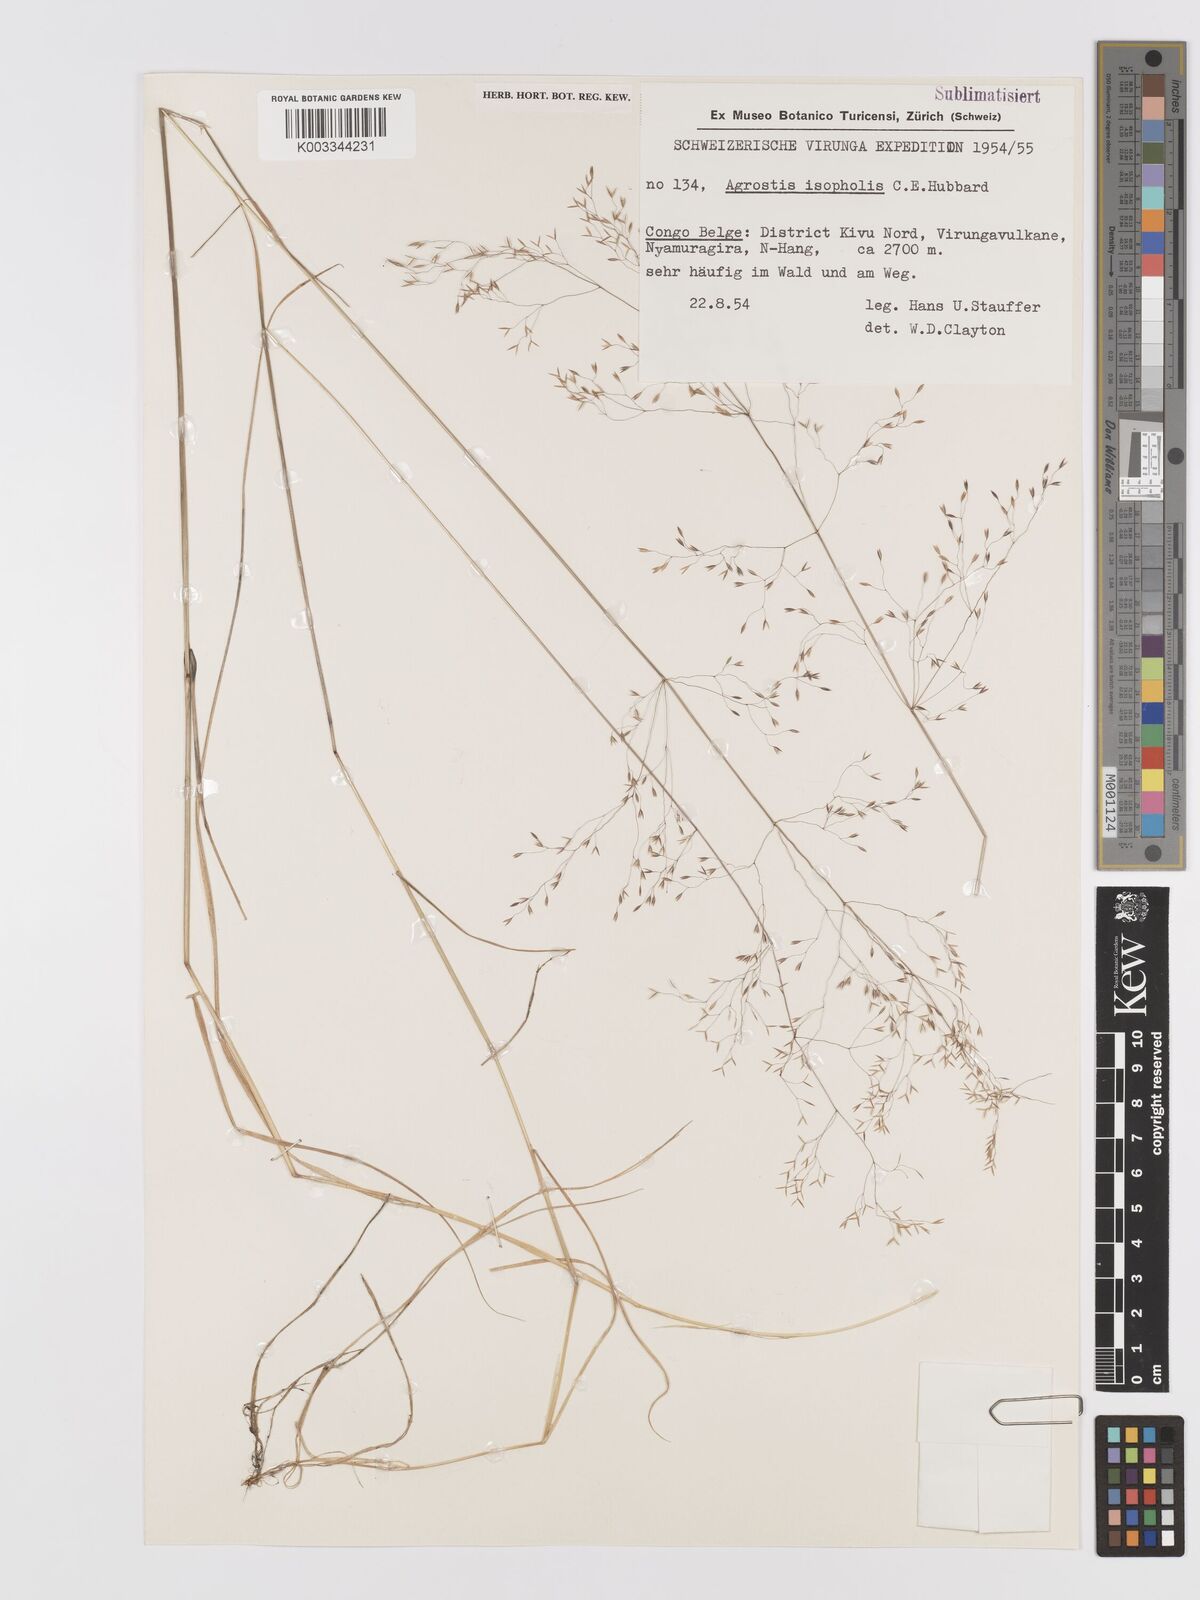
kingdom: Plantae
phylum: Tracheophyta
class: Liliopsida
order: Poales
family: Poaceae
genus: Agrostis
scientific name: Agrostis isopholis
